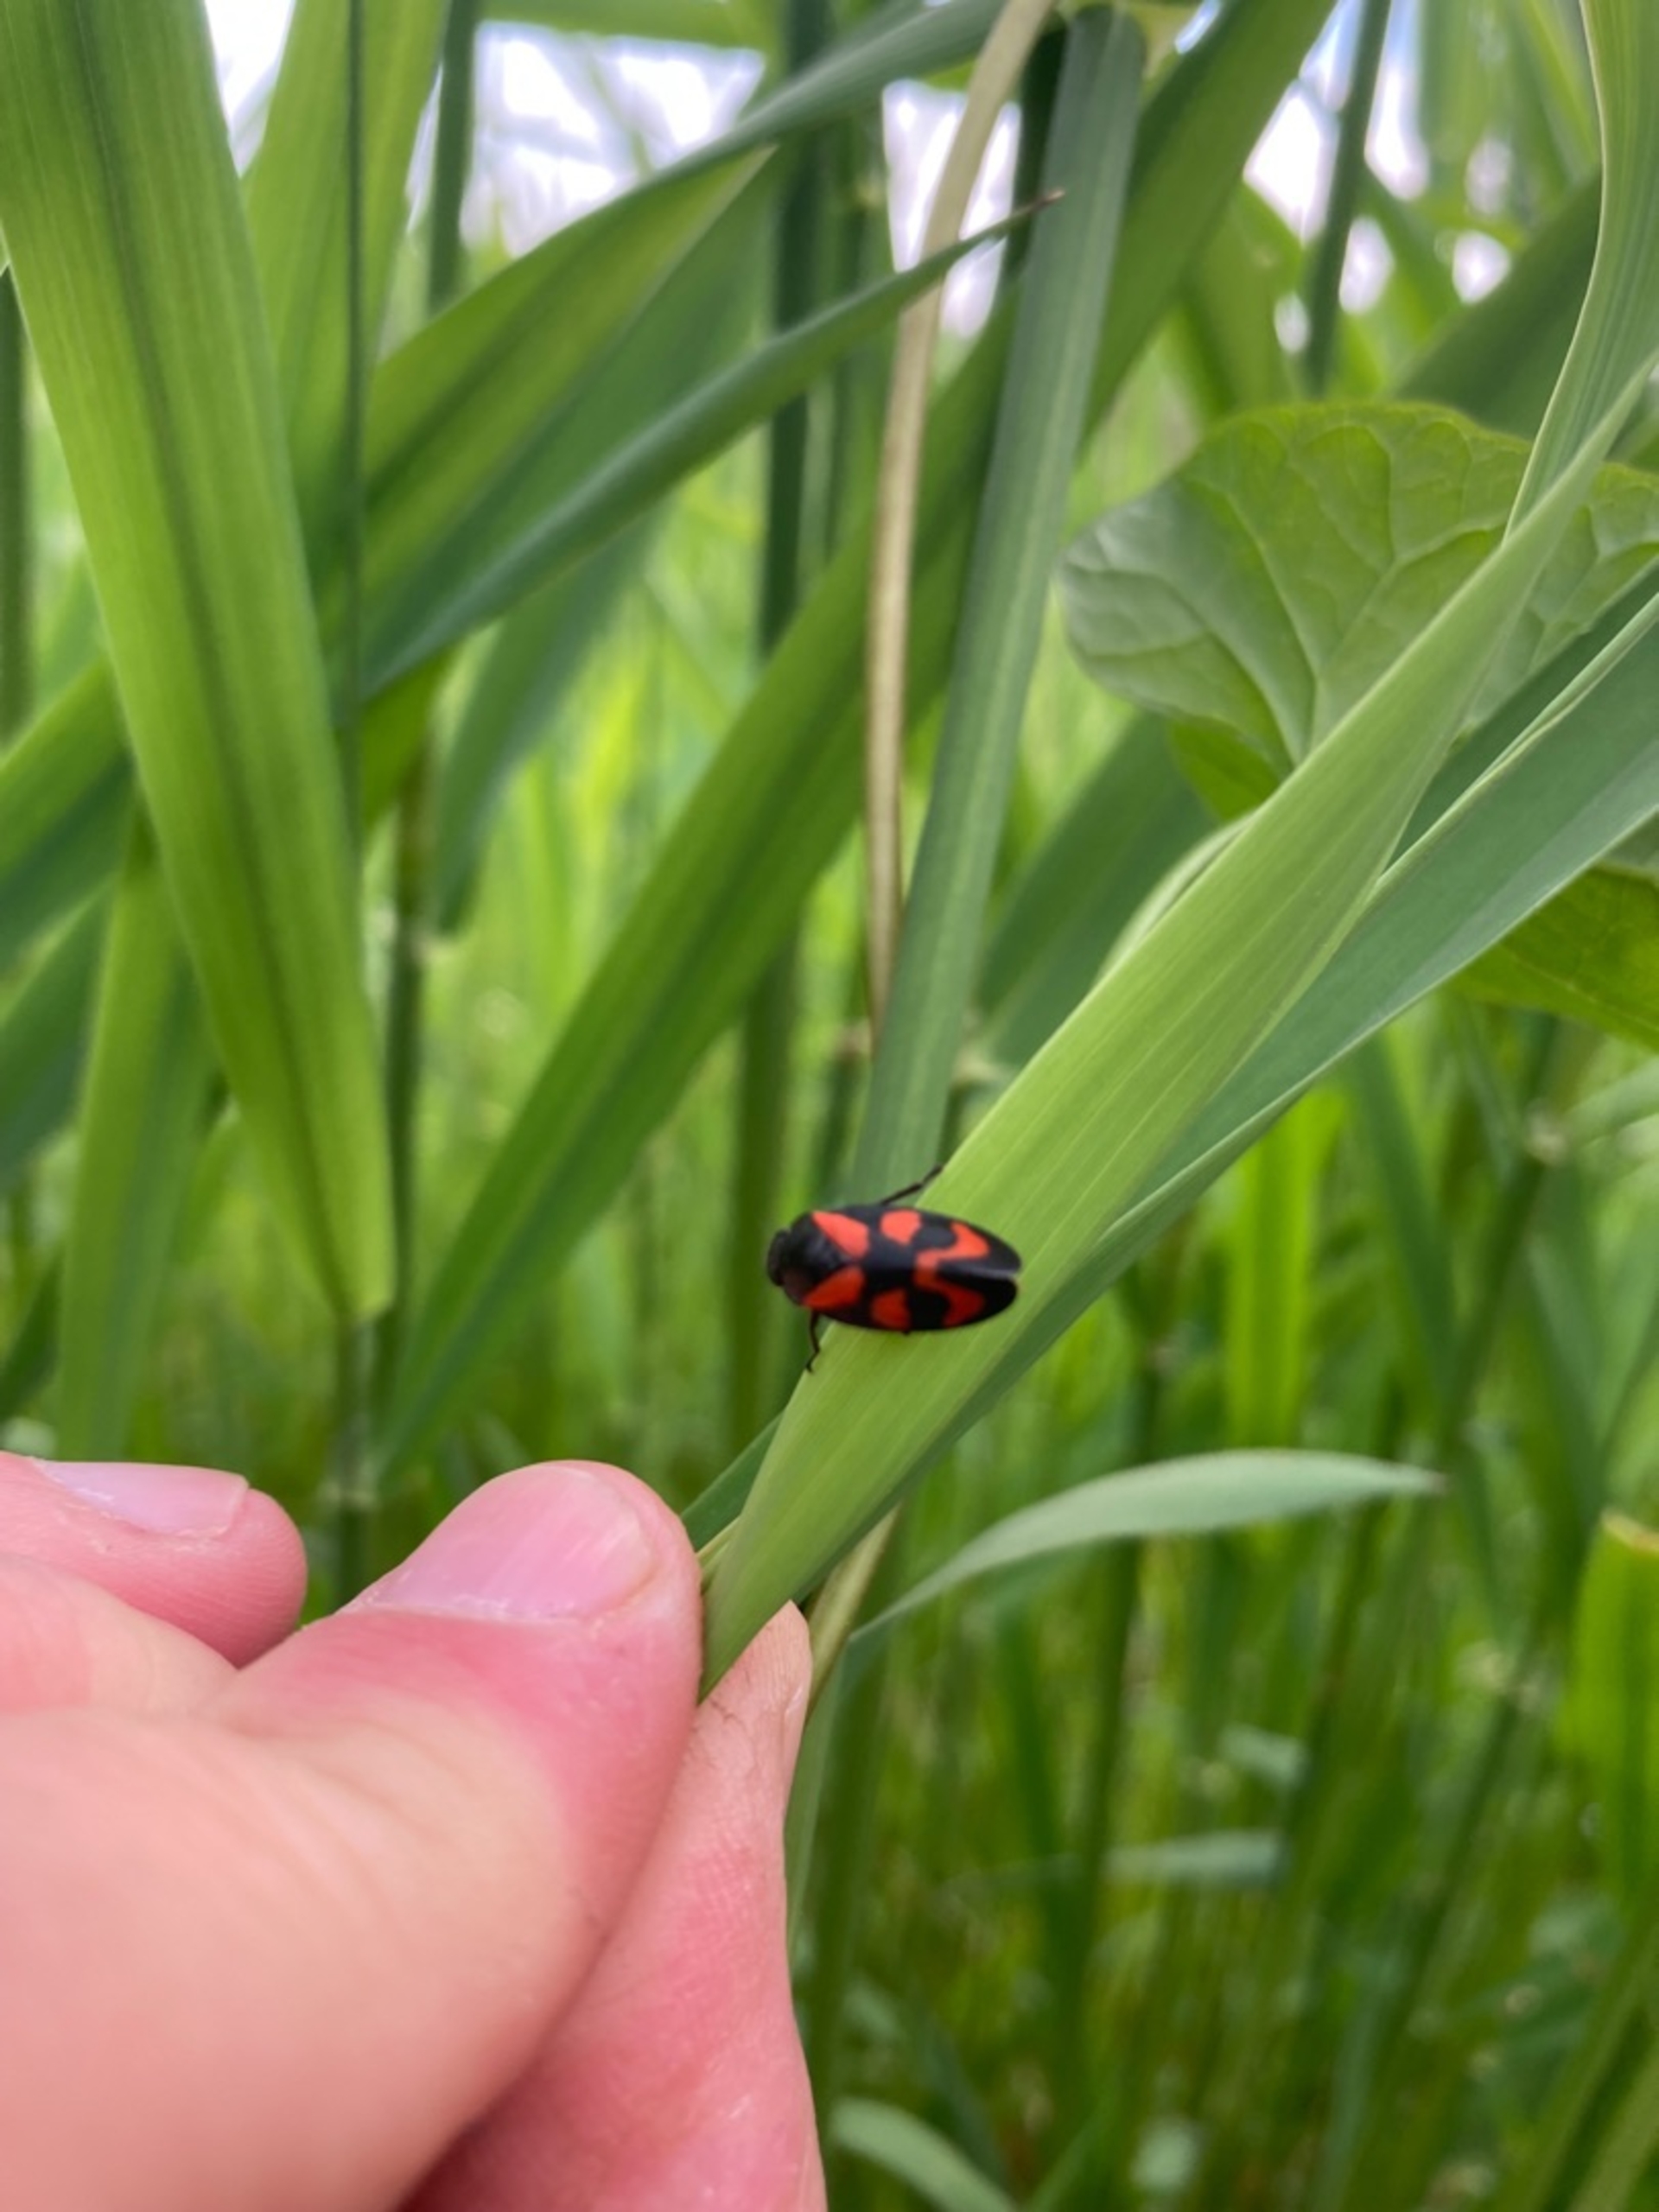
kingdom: Animalia
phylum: Arthropoda
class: Insecta
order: Hemiptera
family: Cercopidae
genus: Cercopis
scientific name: Cercopis vulnerata
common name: Blodcikade
